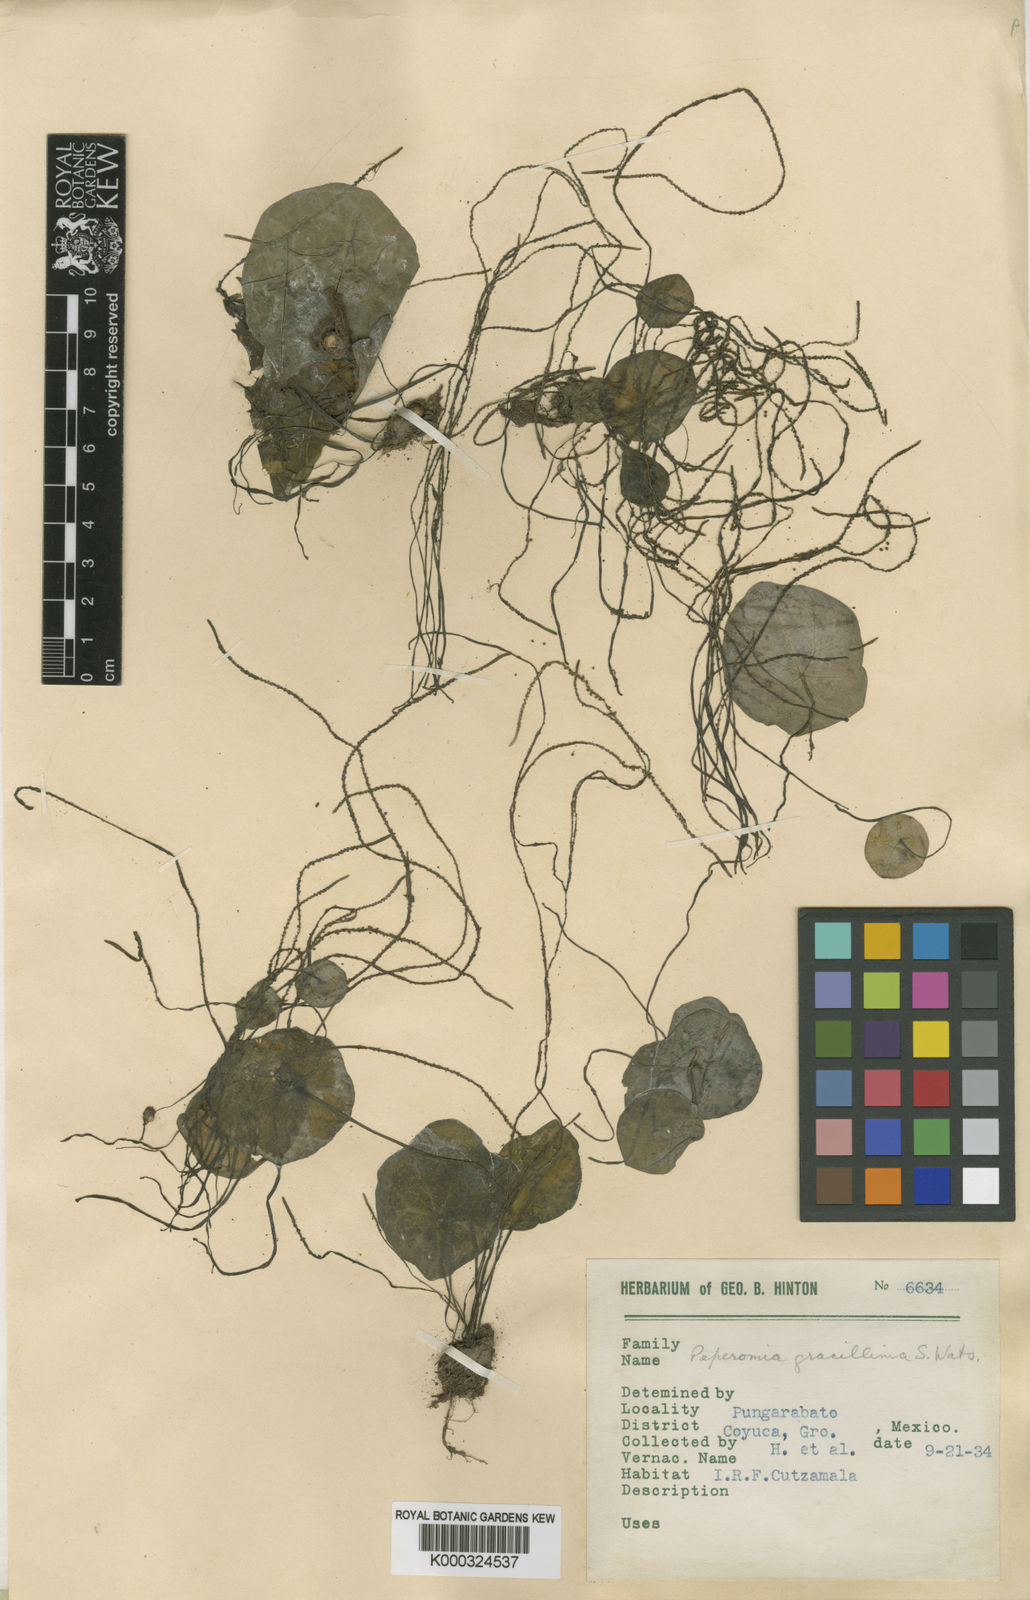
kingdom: Plantae
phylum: Tracheophyta
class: Magnoliopsida
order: Piperales
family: Piperaceae
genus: Peperomia
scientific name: Peperomia gracillima
